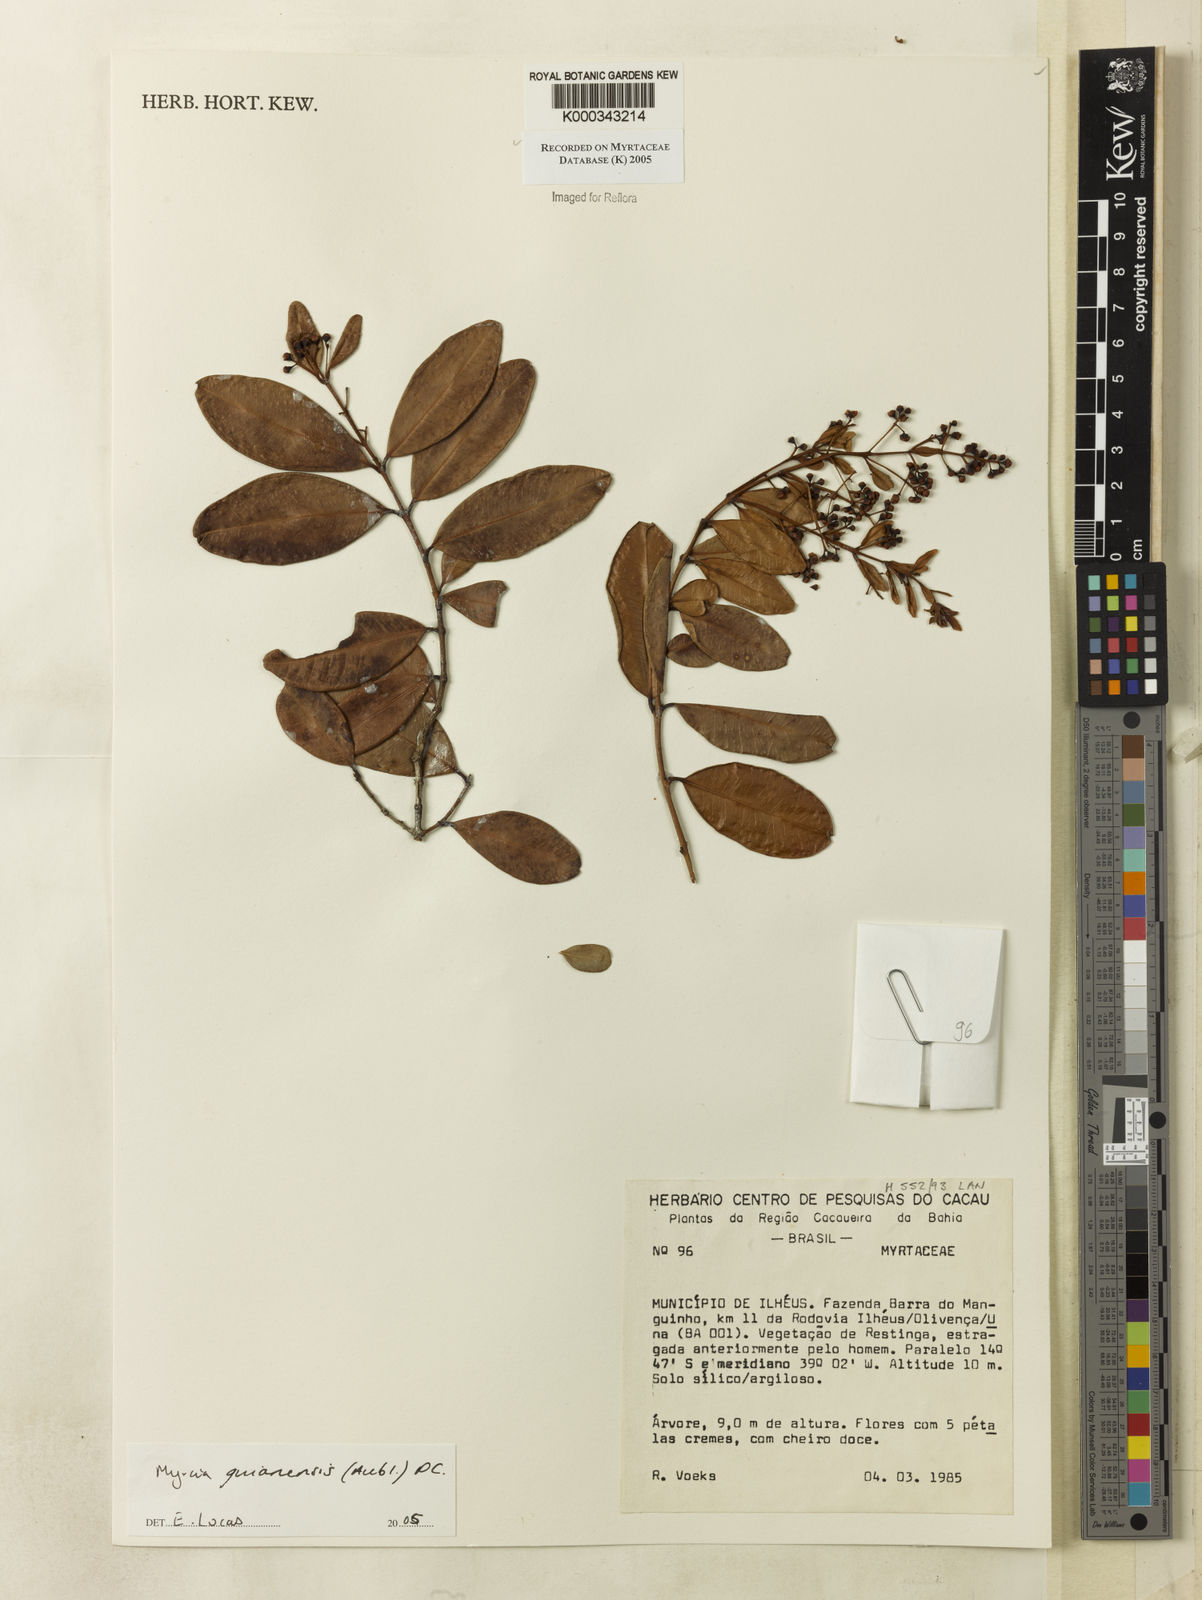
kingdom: Plantae
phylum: Tracheophyta
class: Magnoliopsida
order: Myrtales
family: Myrtaceae
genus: Myrcia
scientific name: Myrcia guianensis
